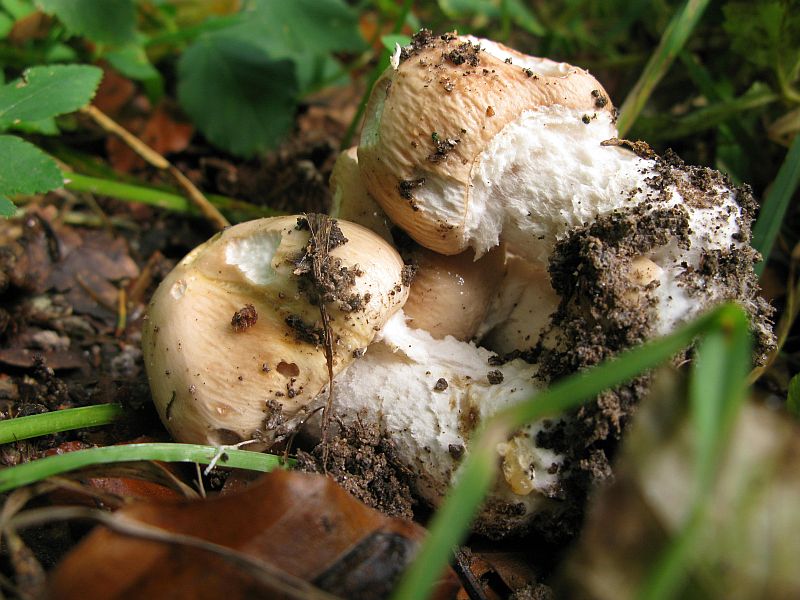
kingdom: Fungi
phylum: Basidiomycota
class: Agaricomycetes
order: Agaricales
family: Amanitaceae
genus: Limacellopsis
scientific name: Limacellopsis guttata
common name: tåre-snekkehat
